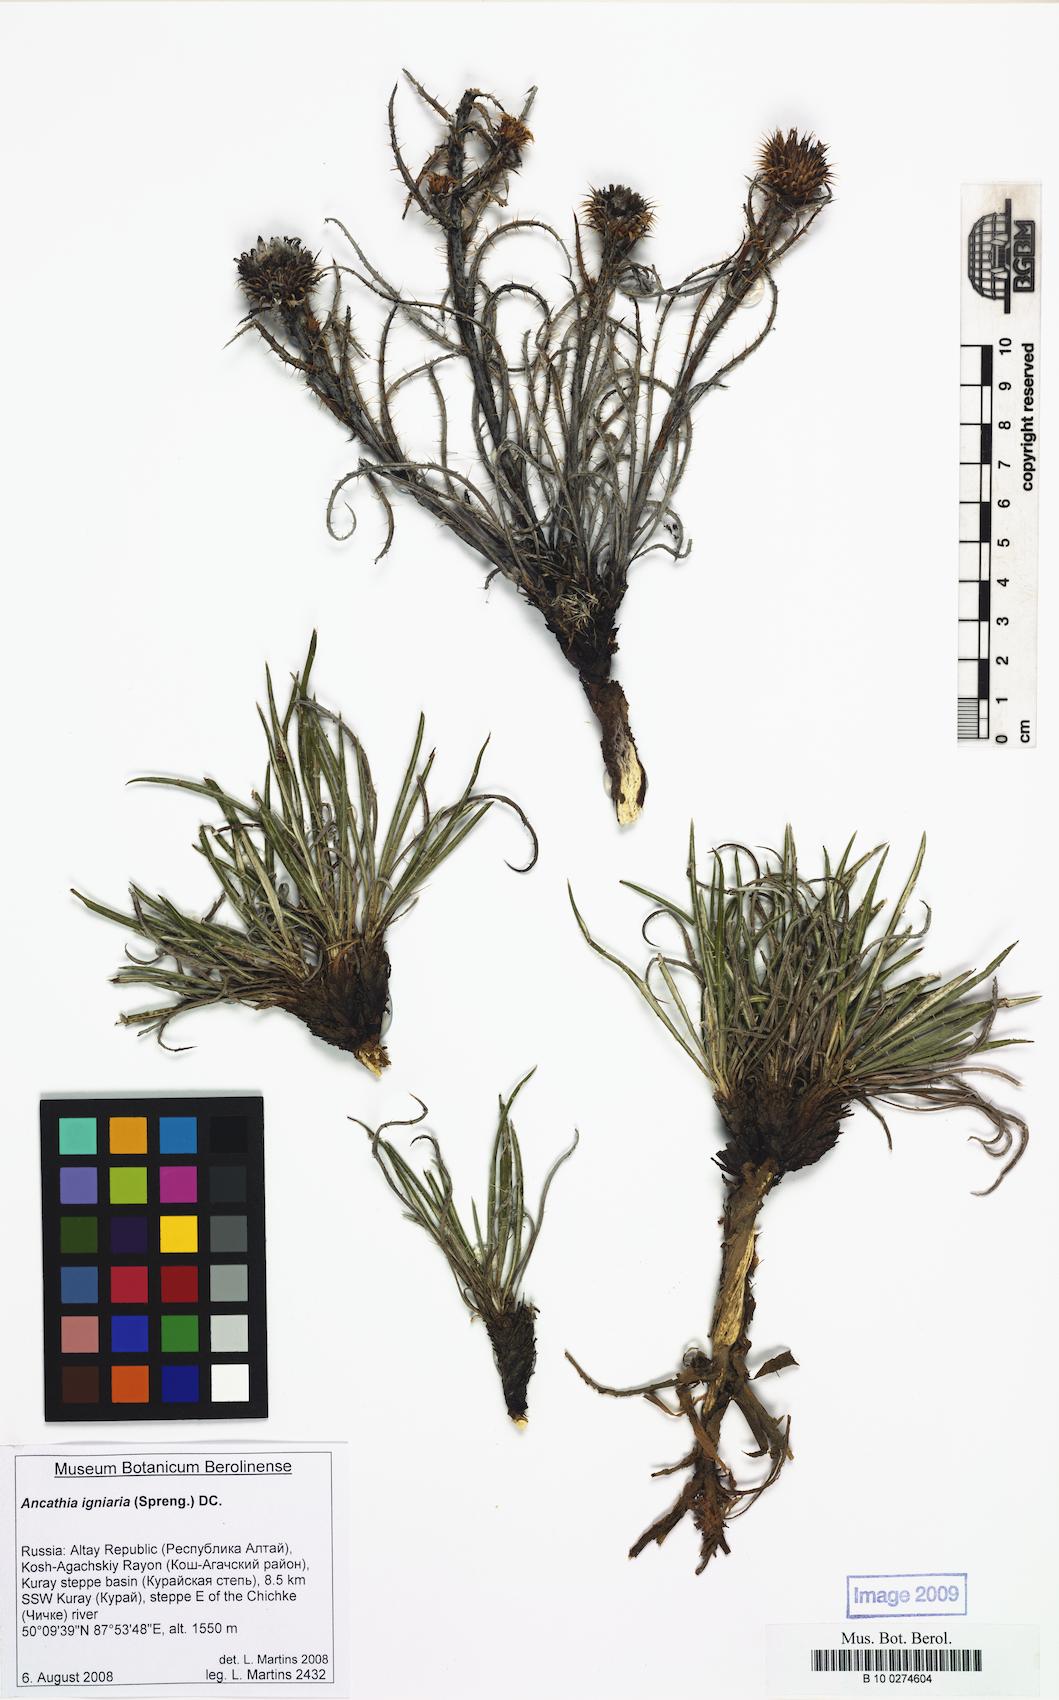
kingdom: Plantae
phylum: Tracheophyta
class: Magnoliopsida
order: Asterales
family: Asteraceae
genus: Ancathia
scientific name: Ancathia igniaria
